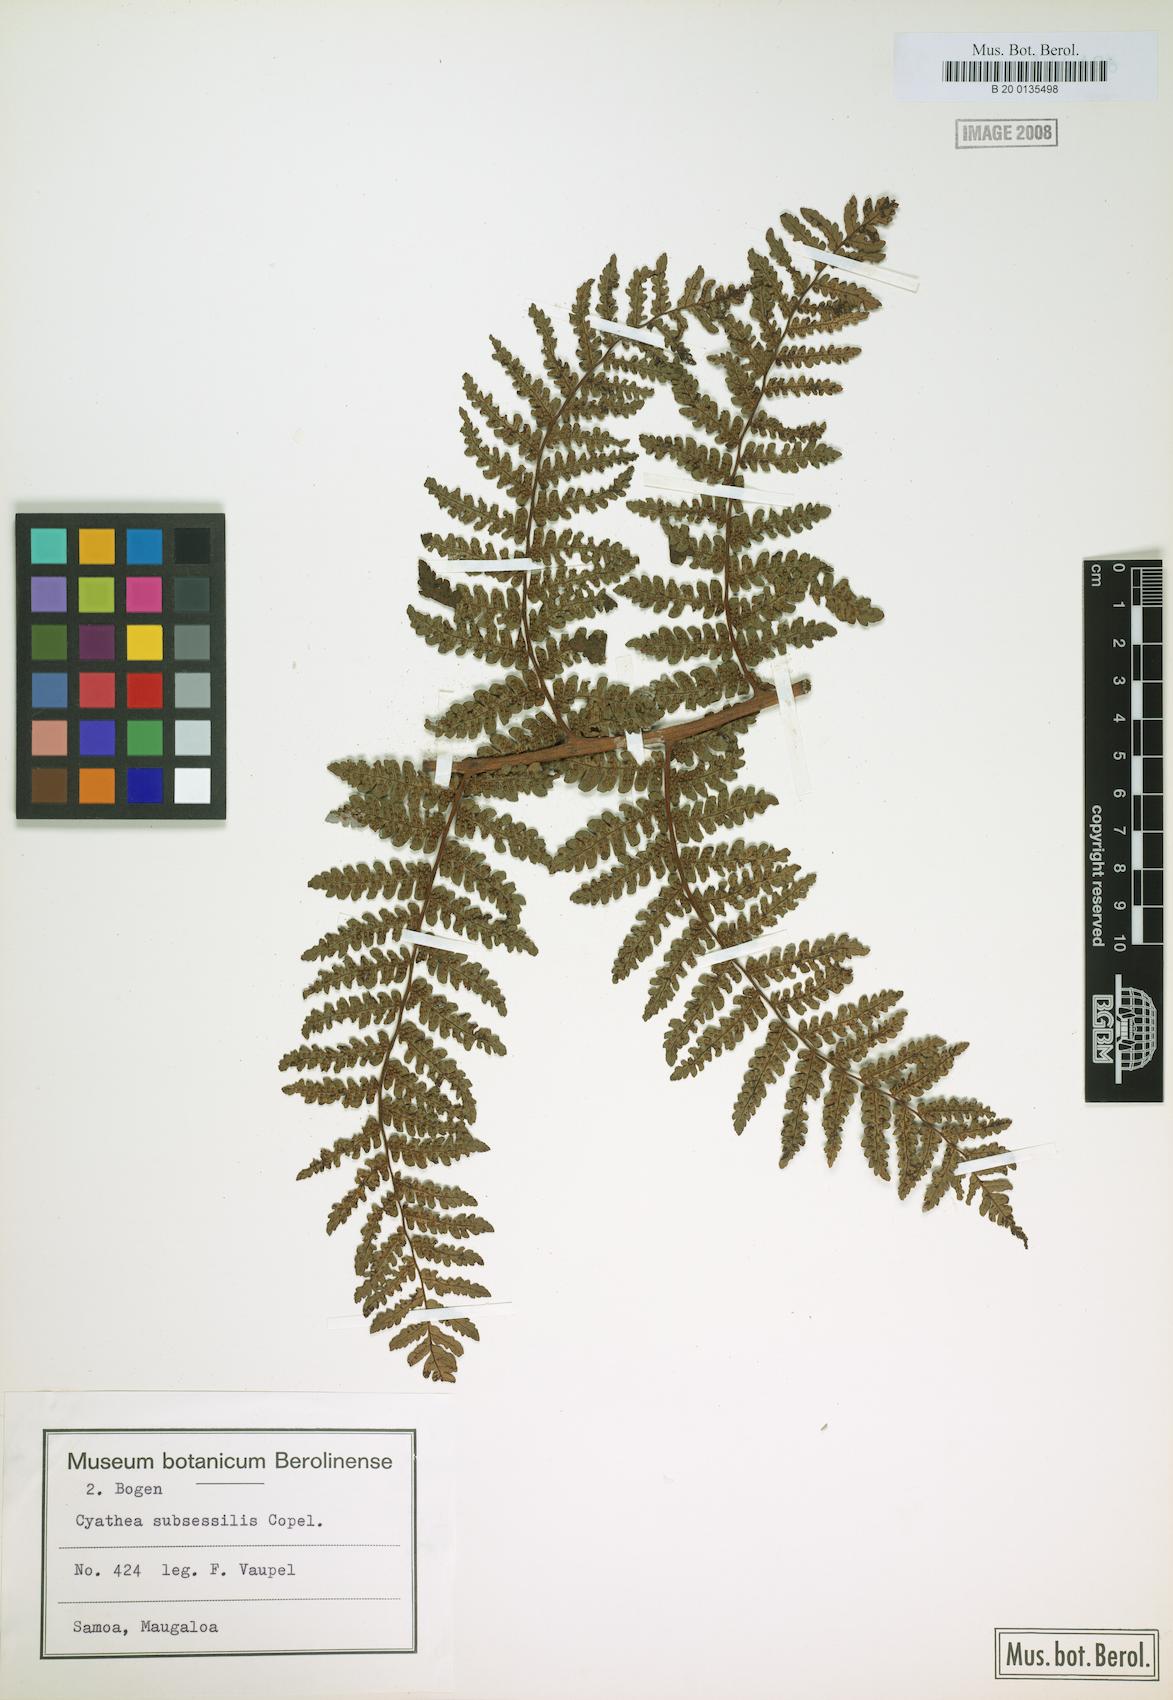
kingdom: Plantae
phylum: Tracheophyta
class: Polypodiopsida
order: Cyatheales
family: Cyatheaceae
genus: Sphaeropteris
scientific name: Sphaeropteris subsessilis
